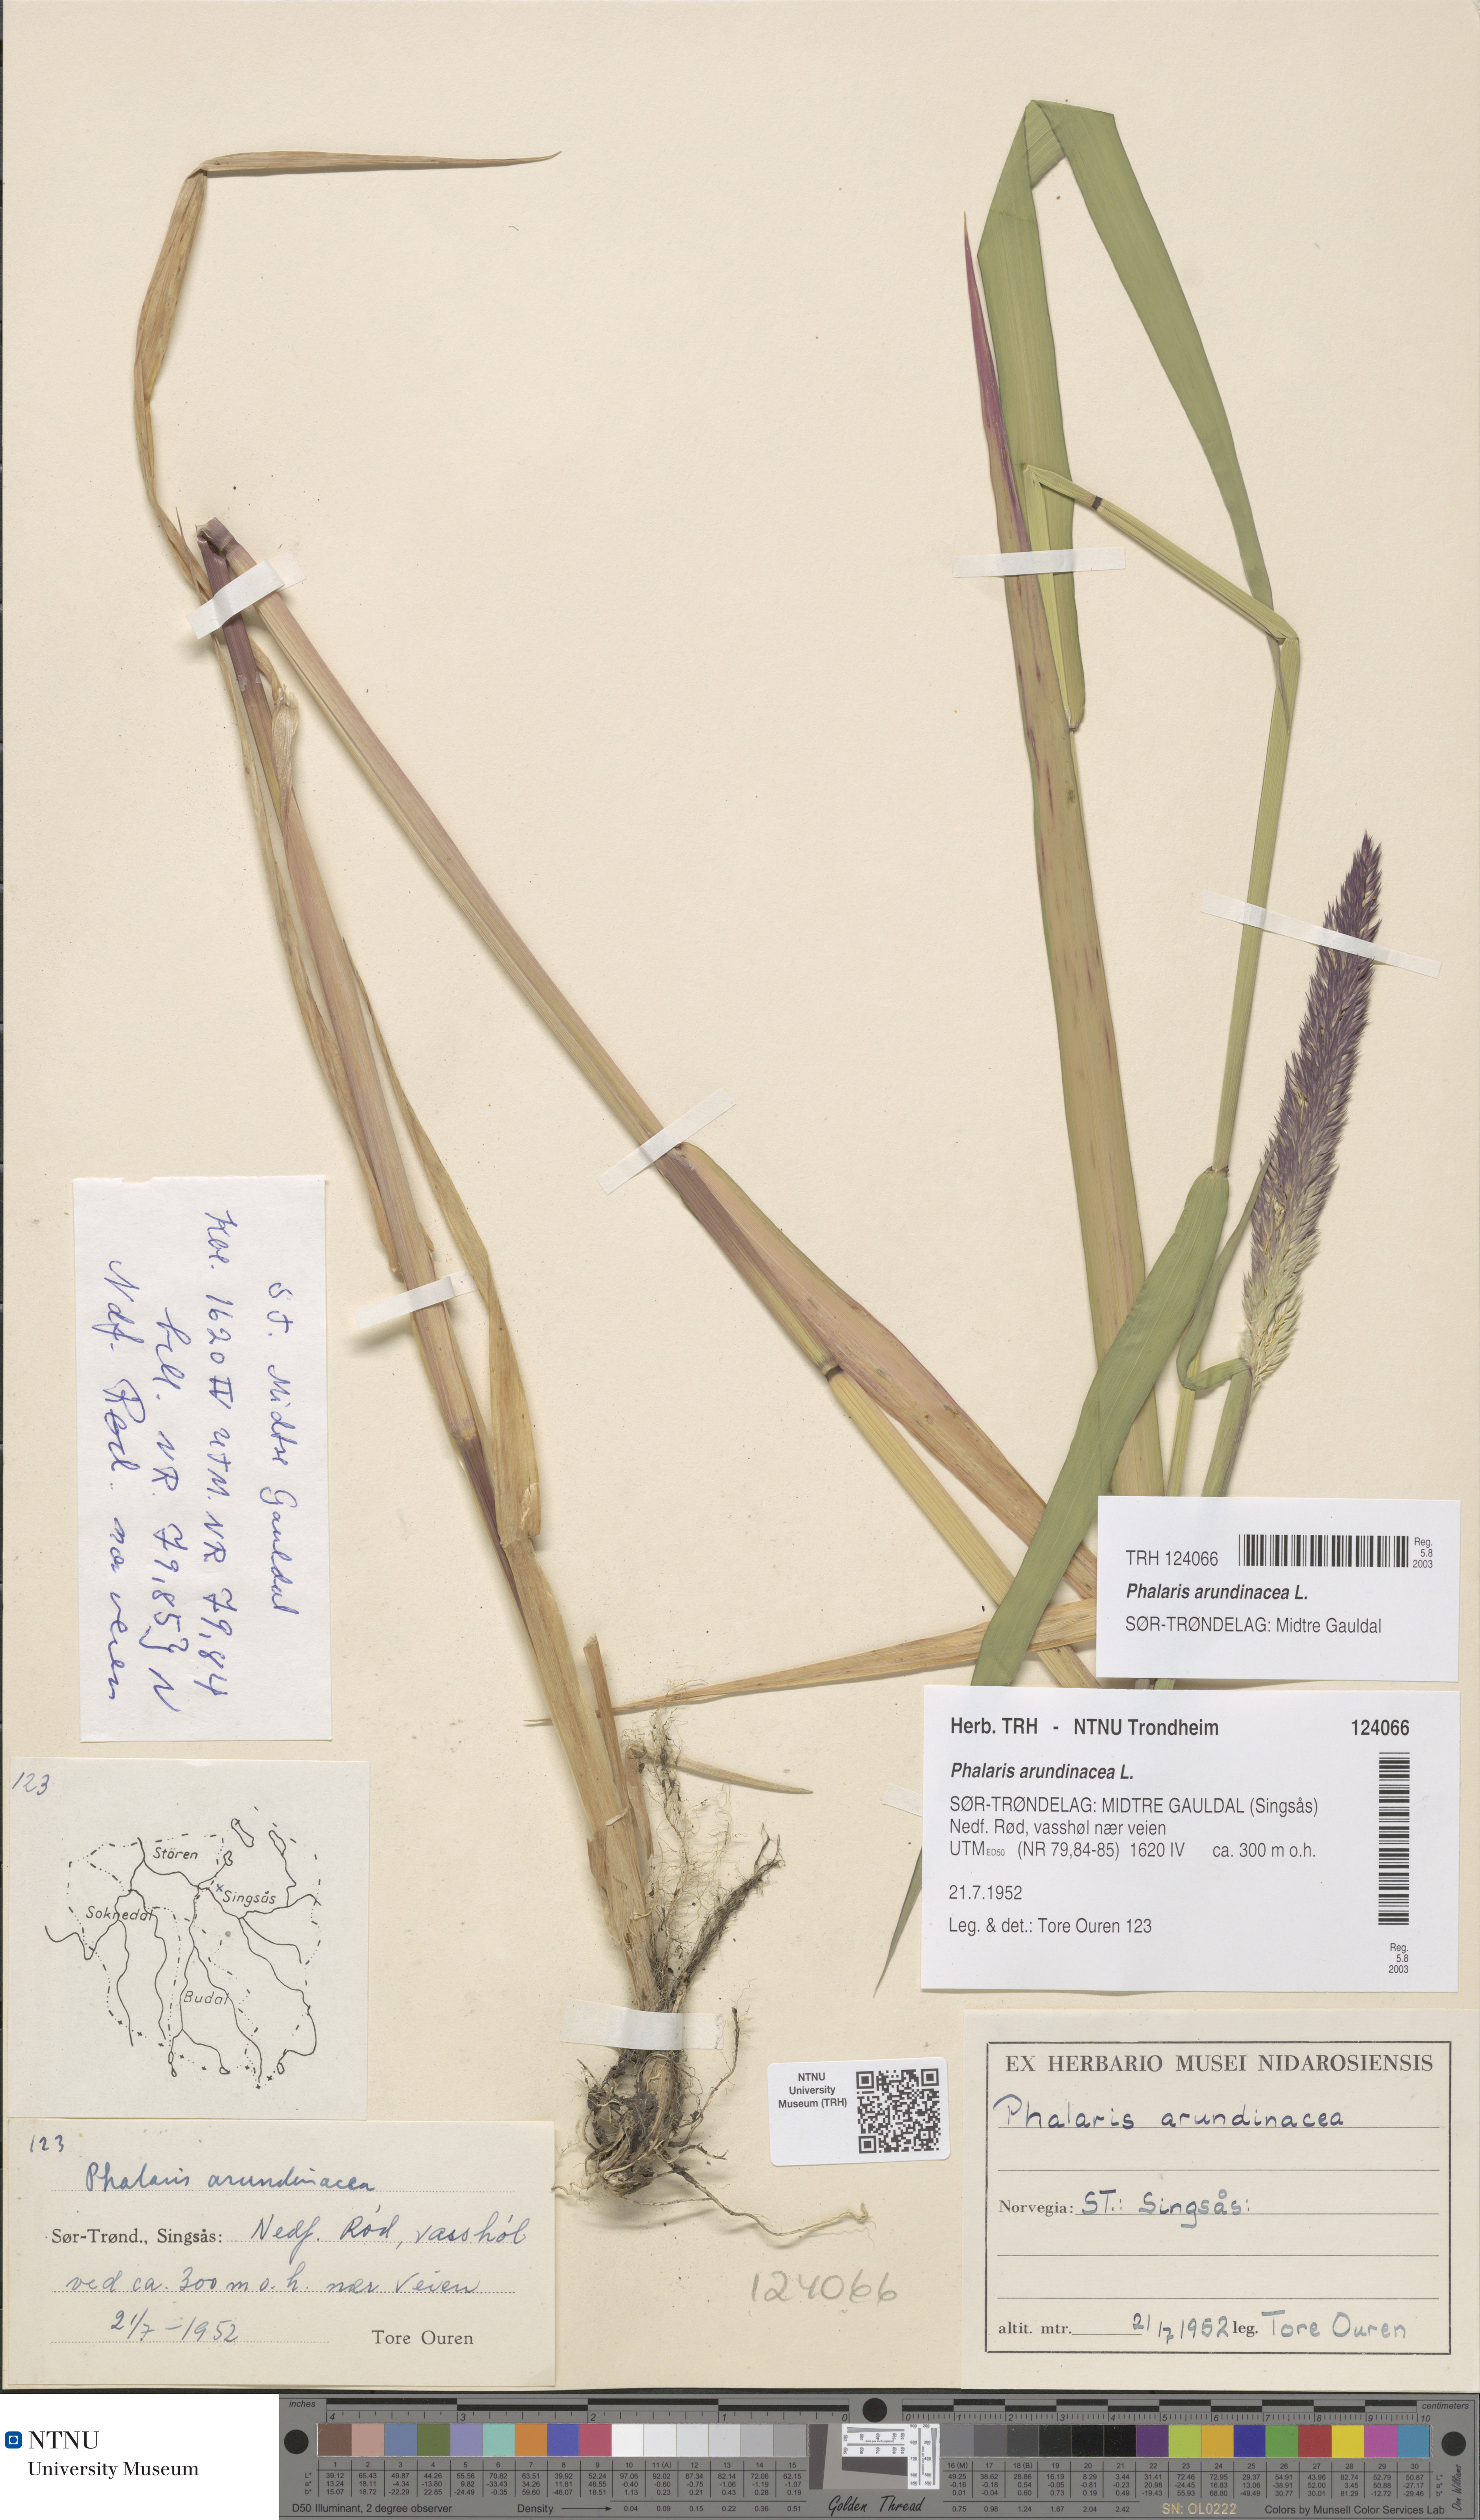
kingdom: Plantae
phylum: Tracheophyta
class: Liliopsida
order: Poales
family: Poaceae
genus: Phalaris
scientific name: Phalaris arundinacea
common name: Reed canary-grass
